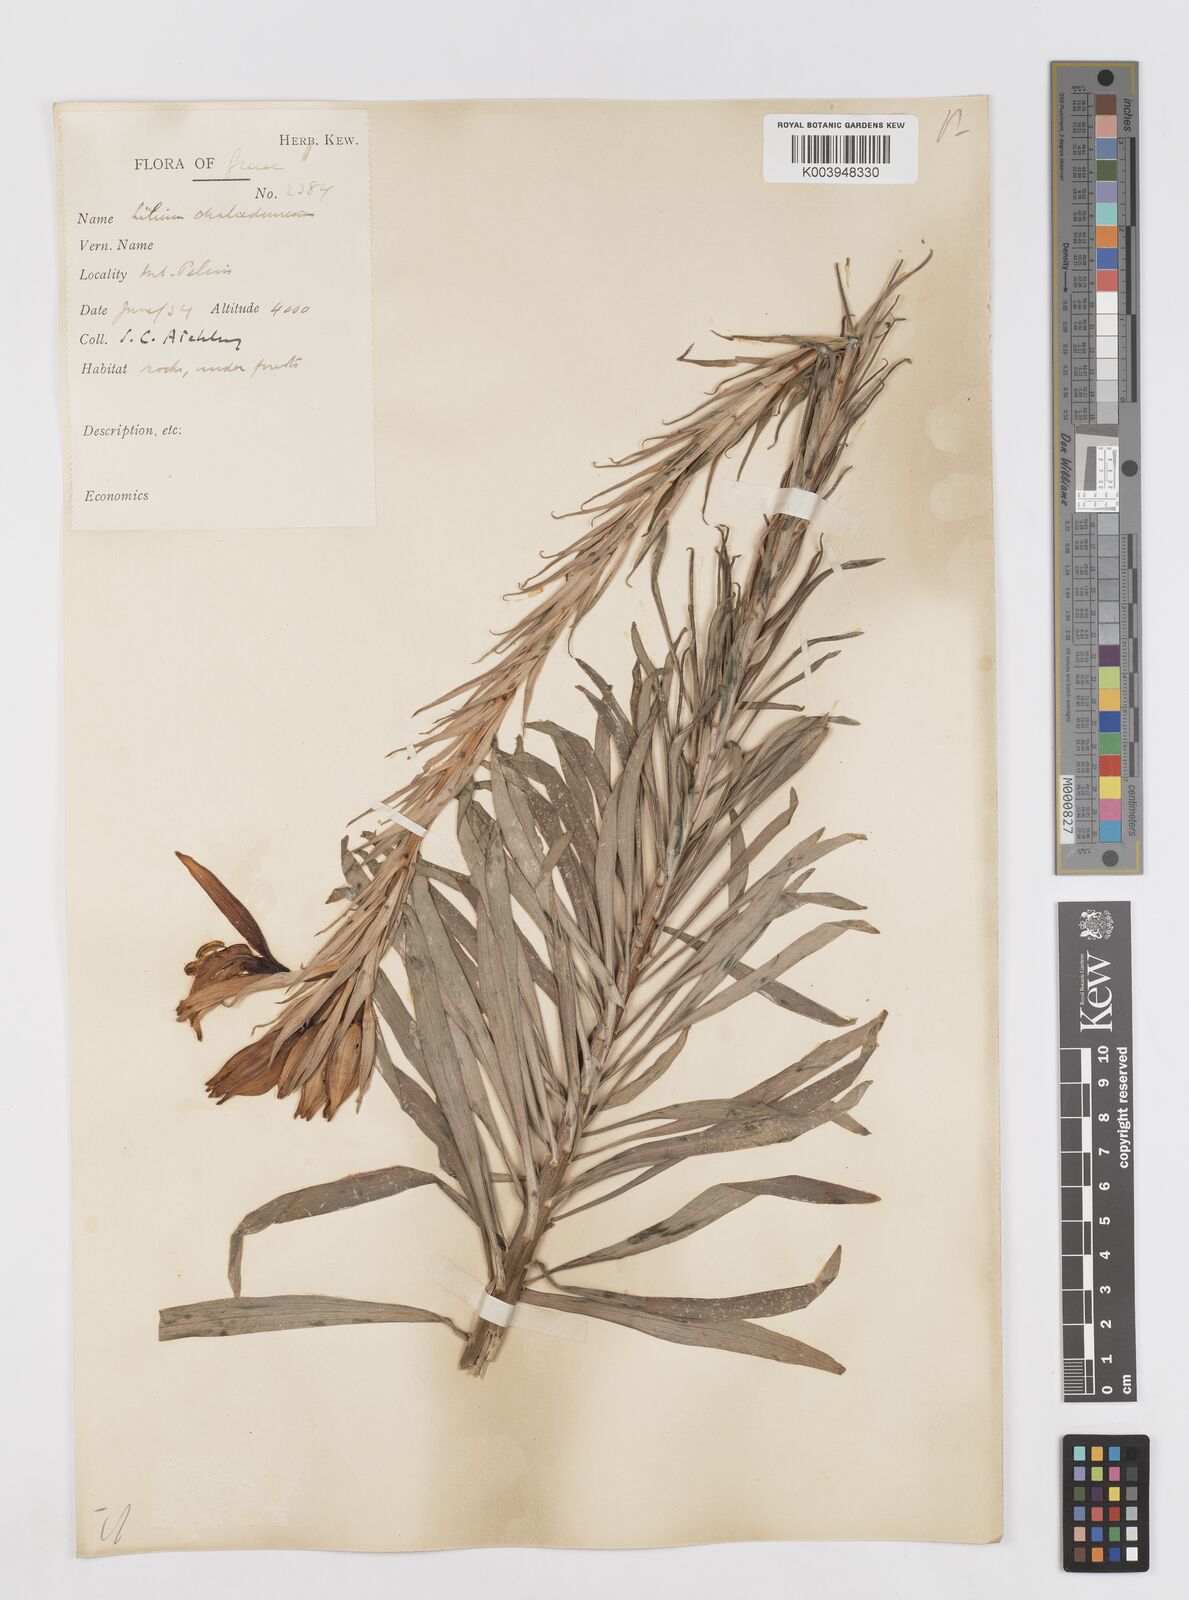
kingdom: Plantae
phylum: Tracheophyta
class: Liliopsida
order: Liliales
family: Liliaceae
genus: Lilium
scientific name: Lilium chalcedonicum
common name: Red martagon of constantinople
